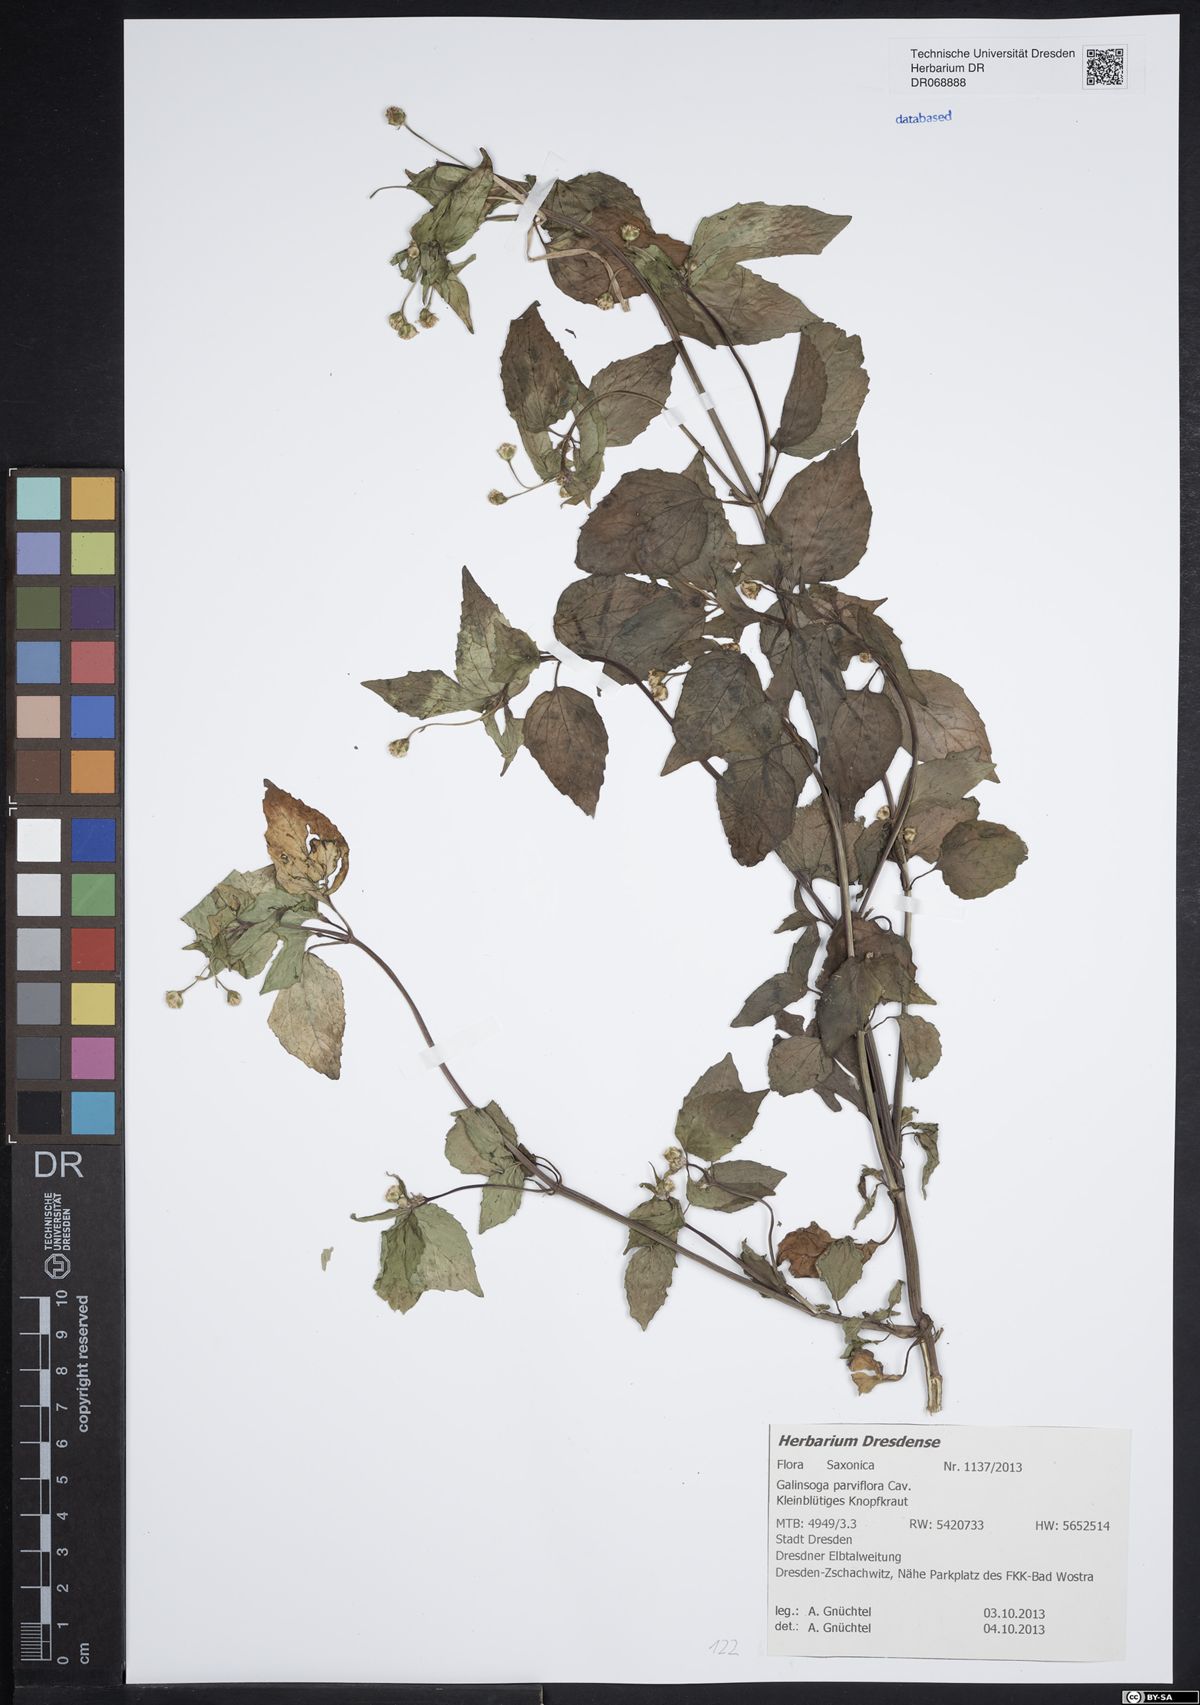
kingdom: Plantae
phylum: Tracheophyta
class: Magnoliopsida
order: Asterales
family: Asteraceae
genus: Galinsoga
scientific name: Galinsoga parviflora
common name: Gallant soldier
